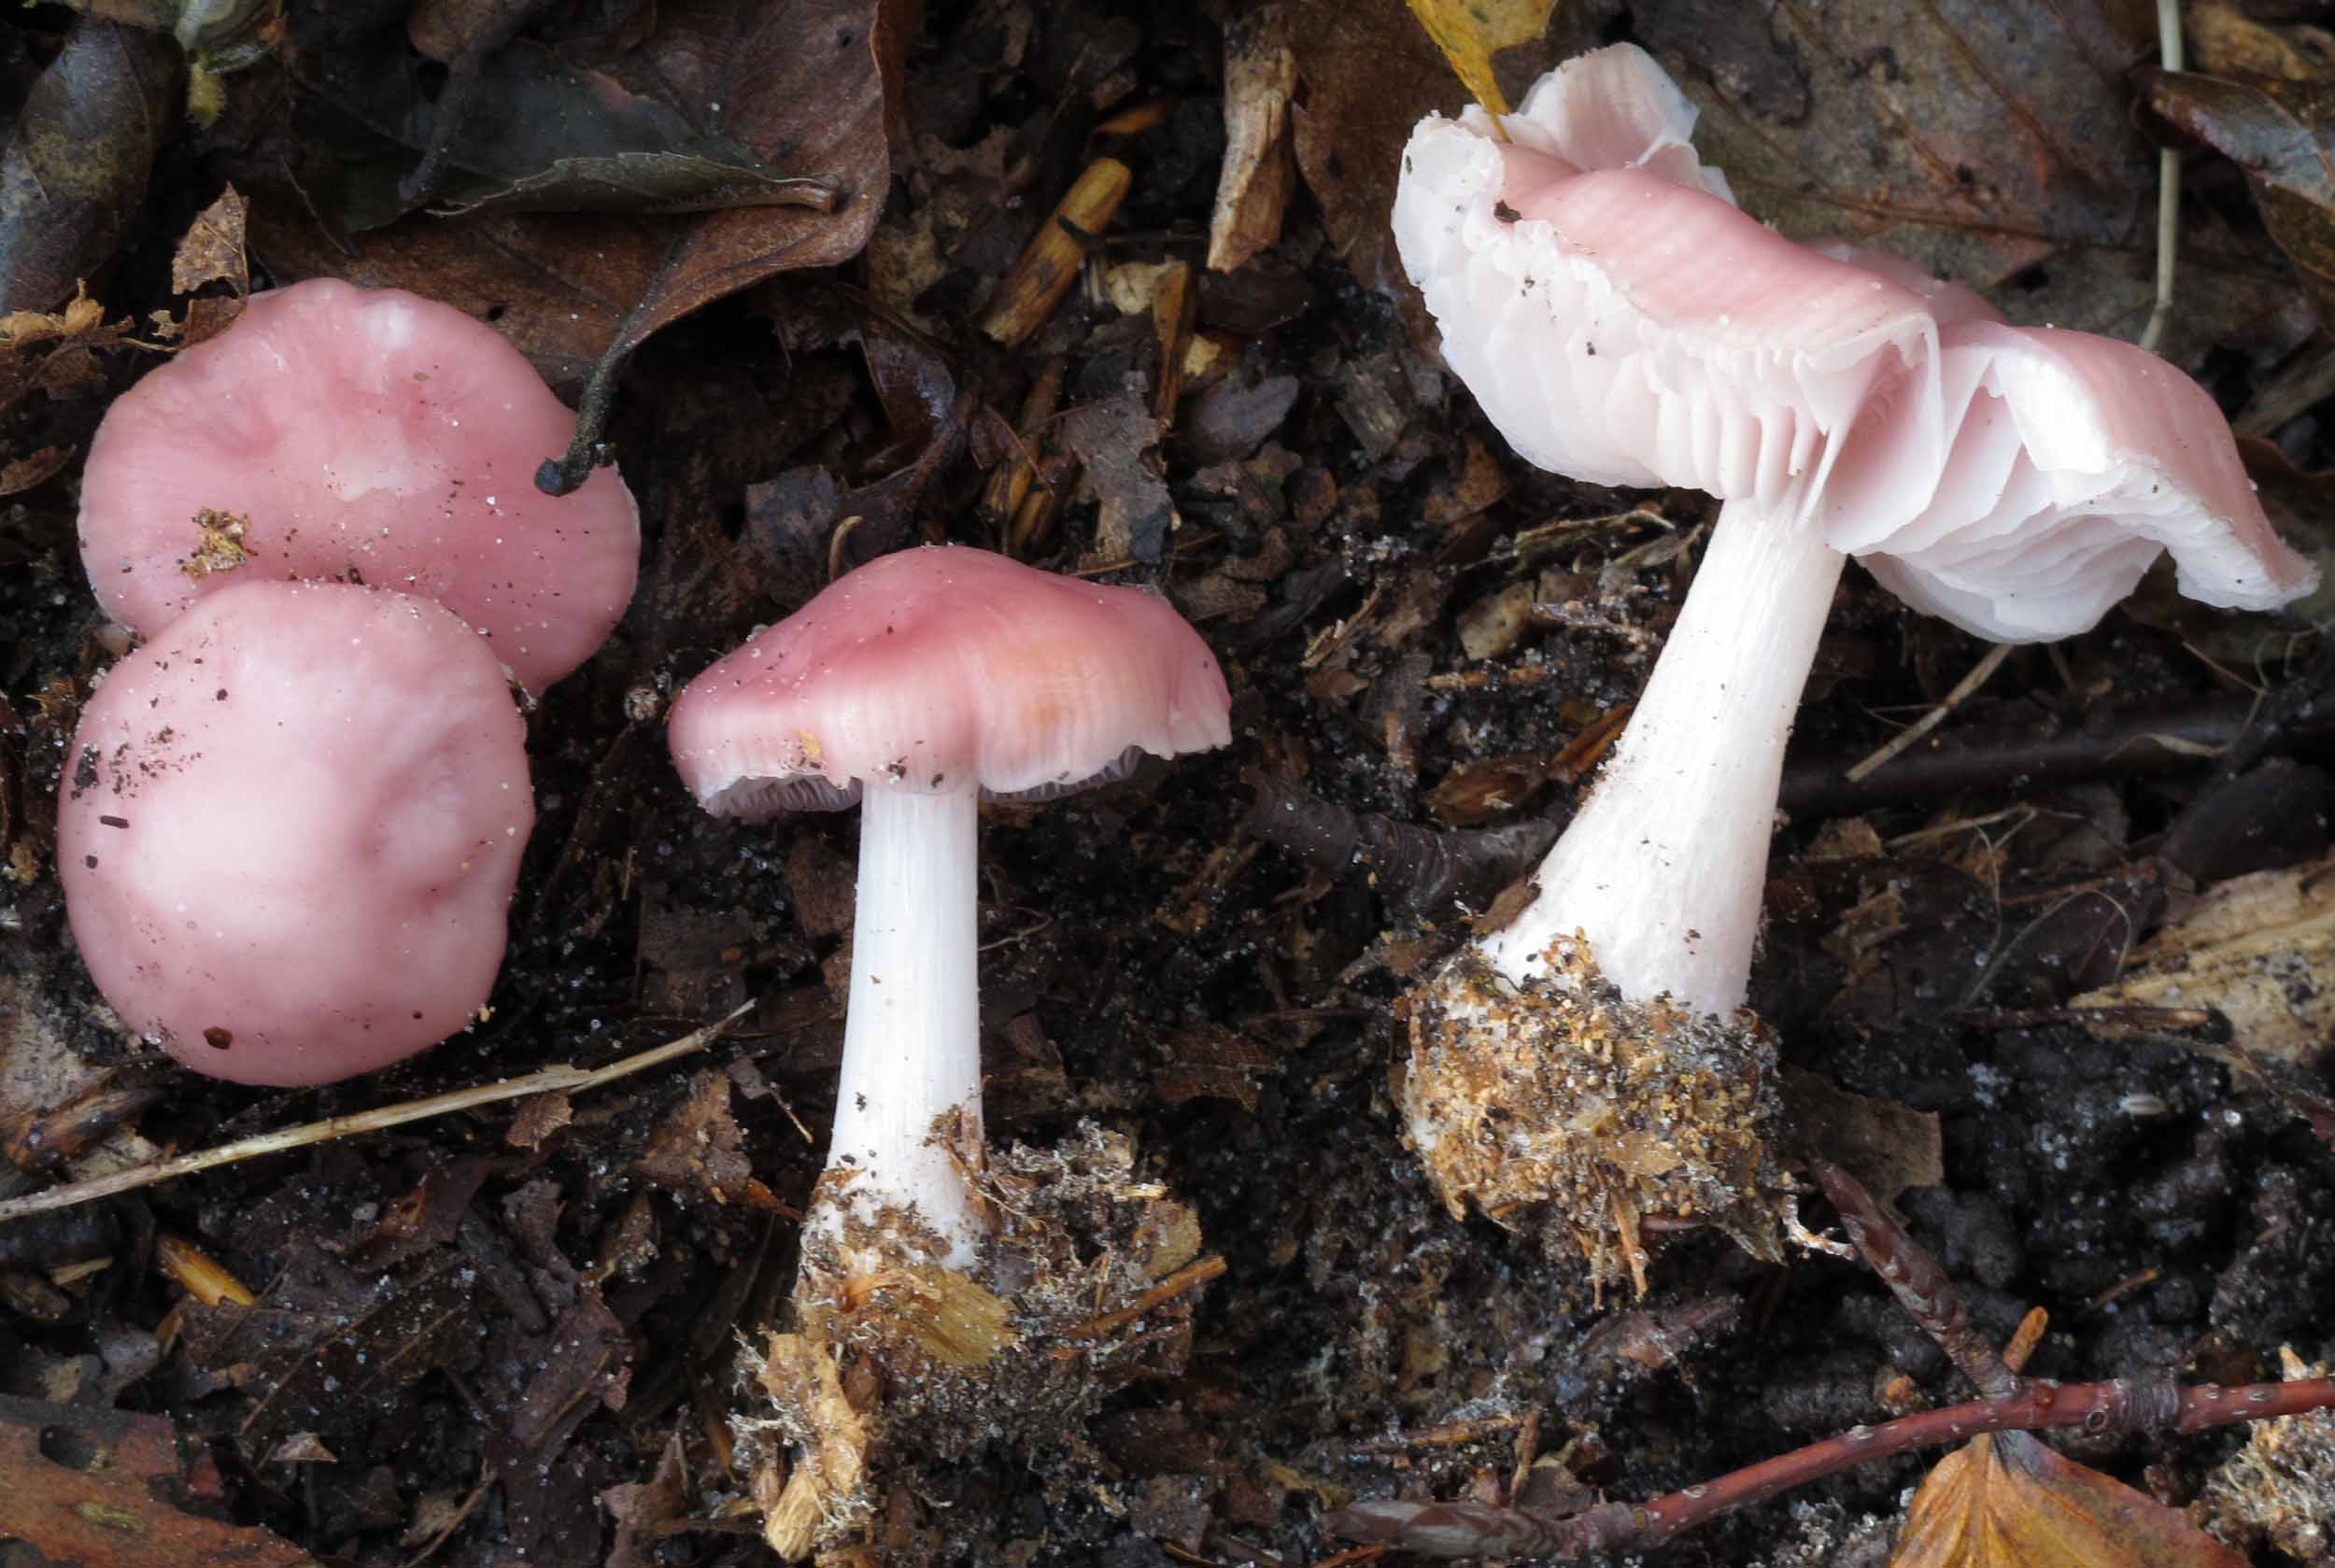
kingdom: Fungi
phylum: Basidiomycota
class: Agaricomycetes
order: Agaricales
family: Mycenaceae
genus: Mycena
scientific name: Mycena rosea
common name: rosa huesvamp
